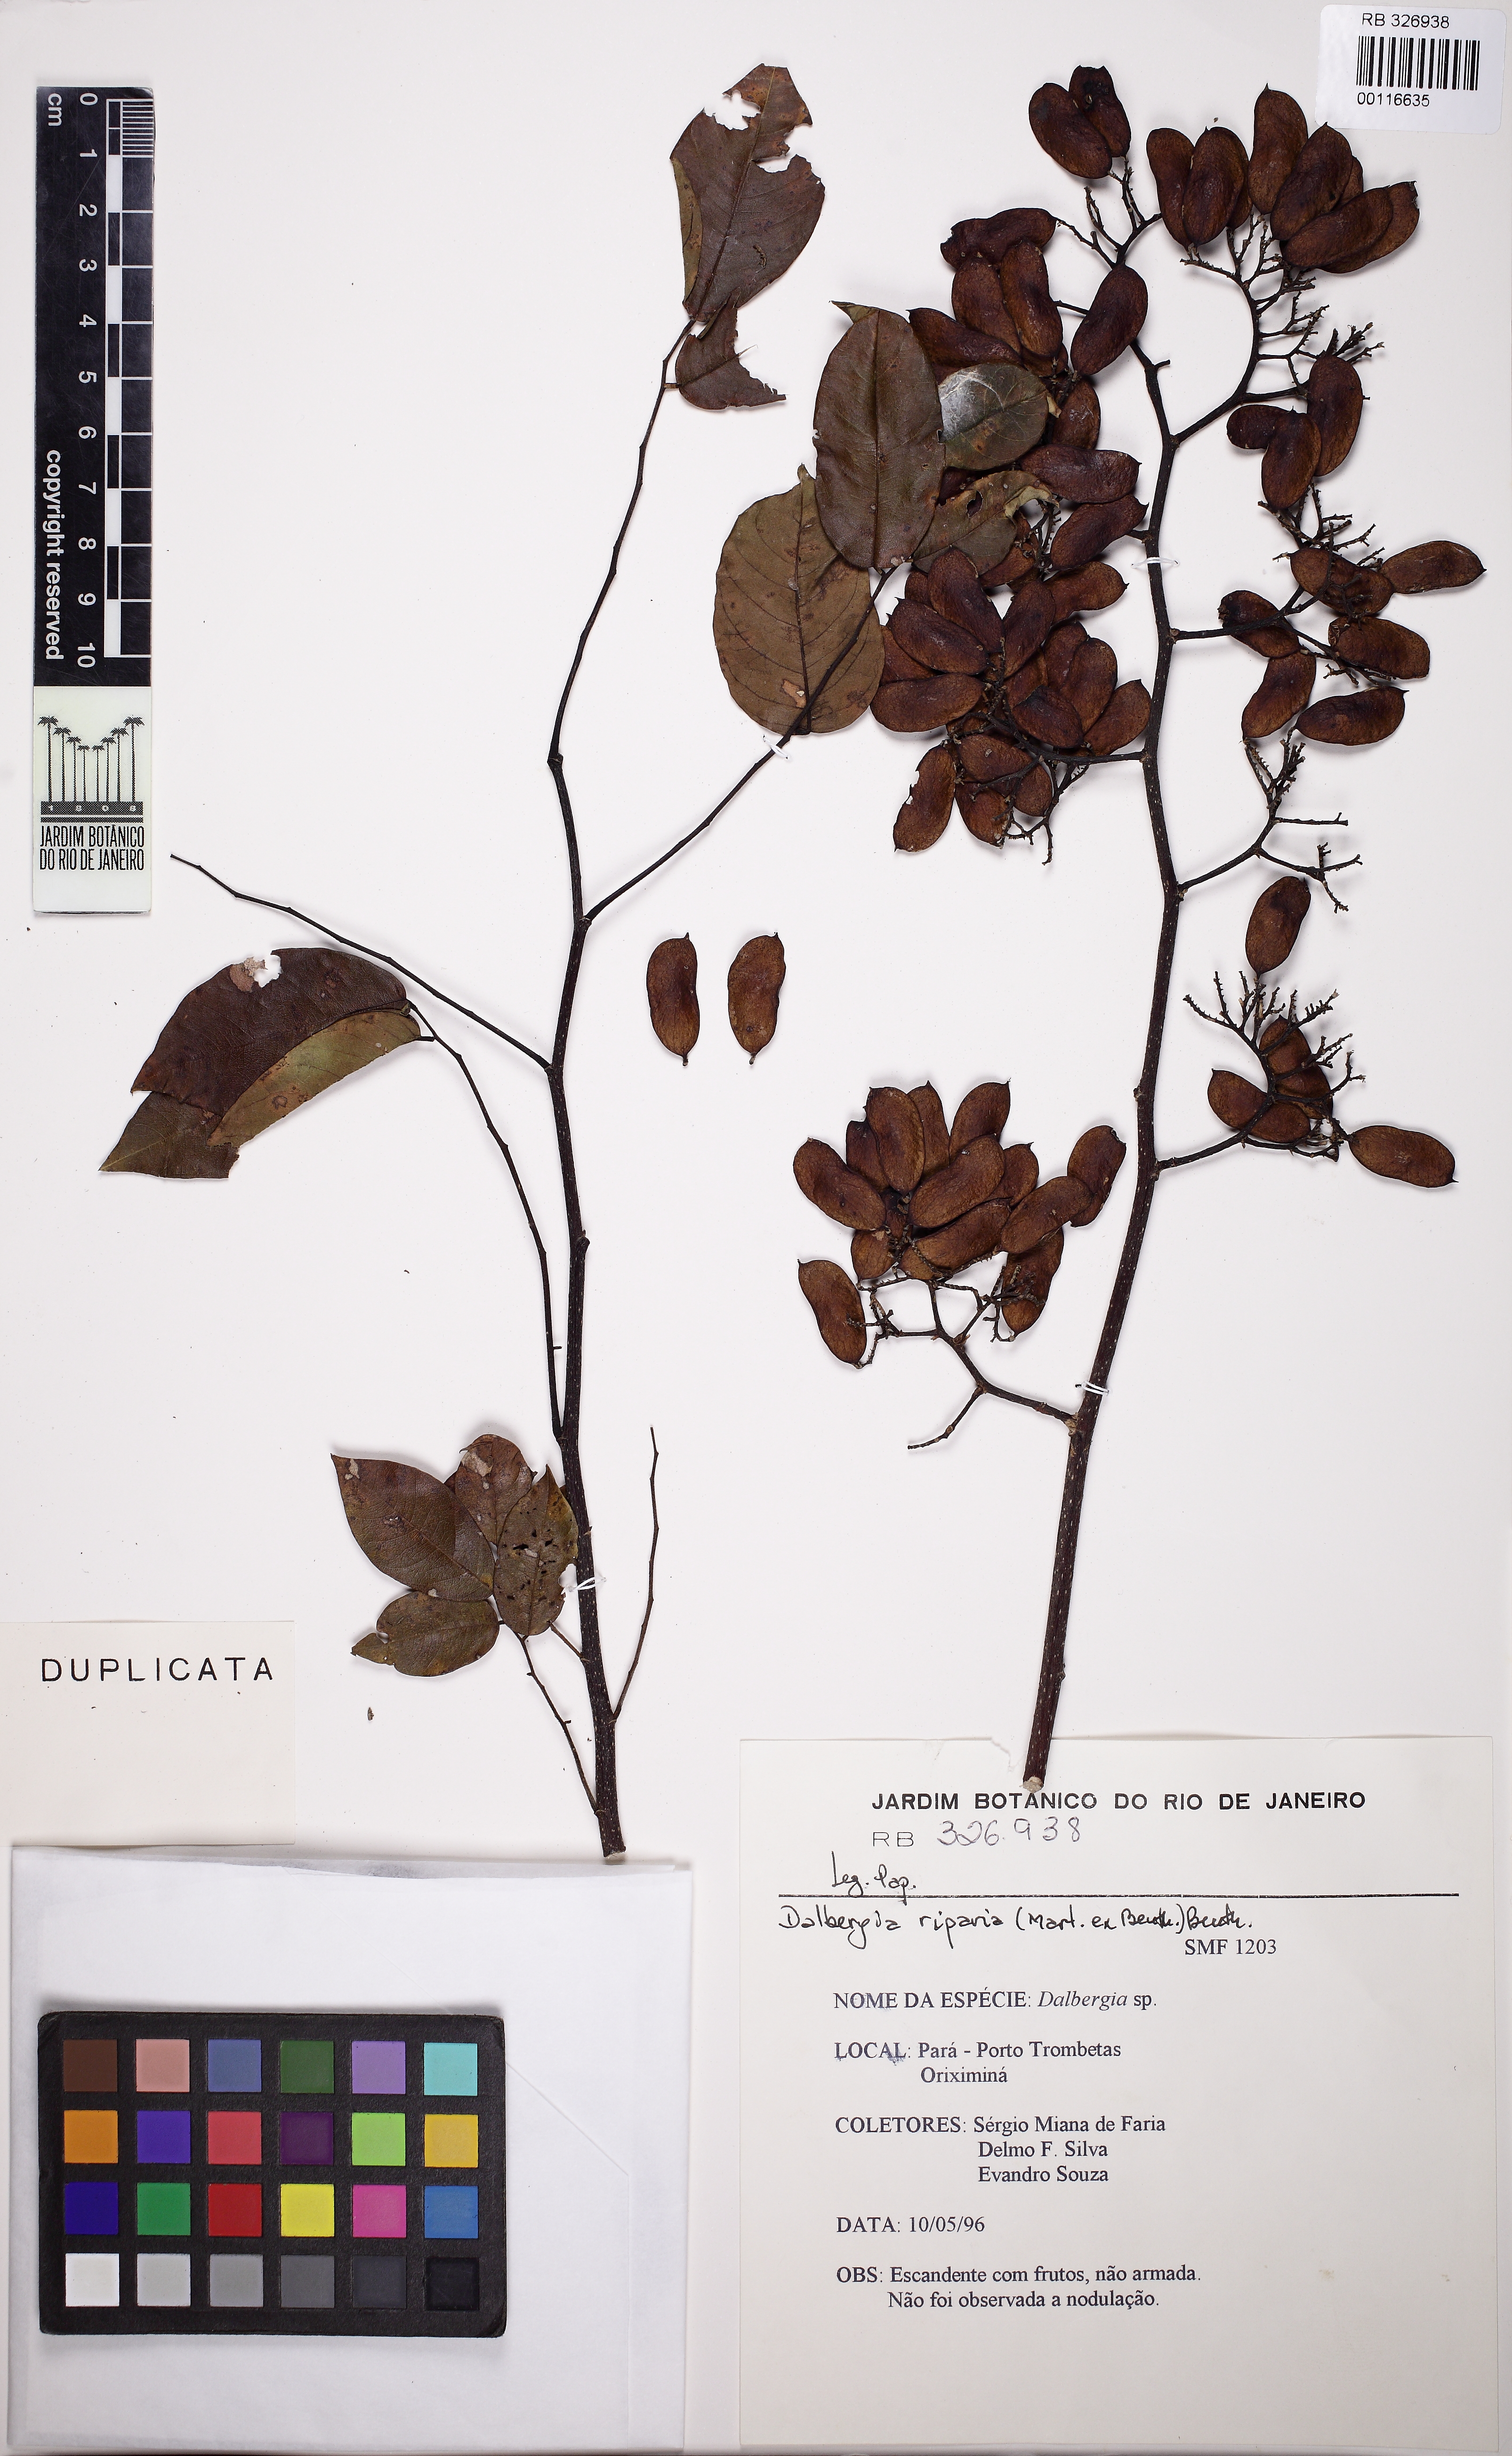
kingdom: Plantae
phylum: Tracheophyta
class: Magnoliopsida
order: Fabales
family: Fabaceae
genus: Dalbergia
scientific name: Dalbergia riparia
